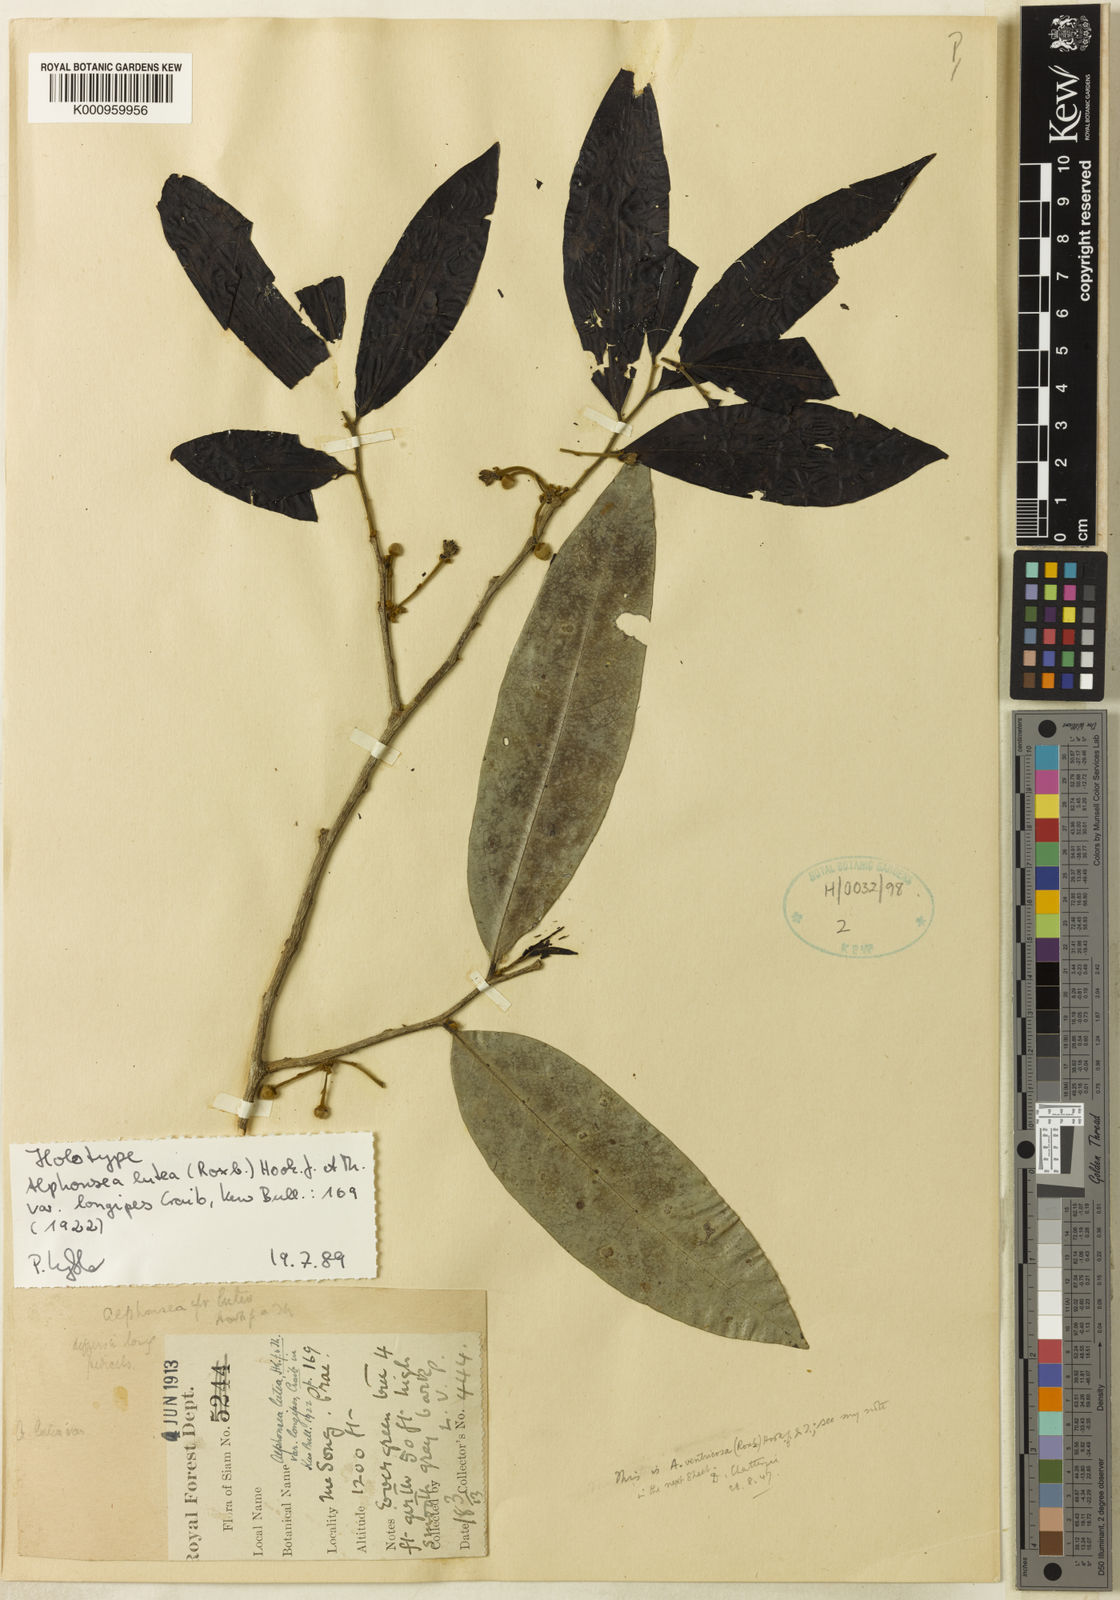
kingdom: Plantae
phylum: Tracheophyta
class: Magnoliopsida
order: Magnoliales
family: Annonaceae
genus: Alphonsea
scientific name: Alphonsea lutea
